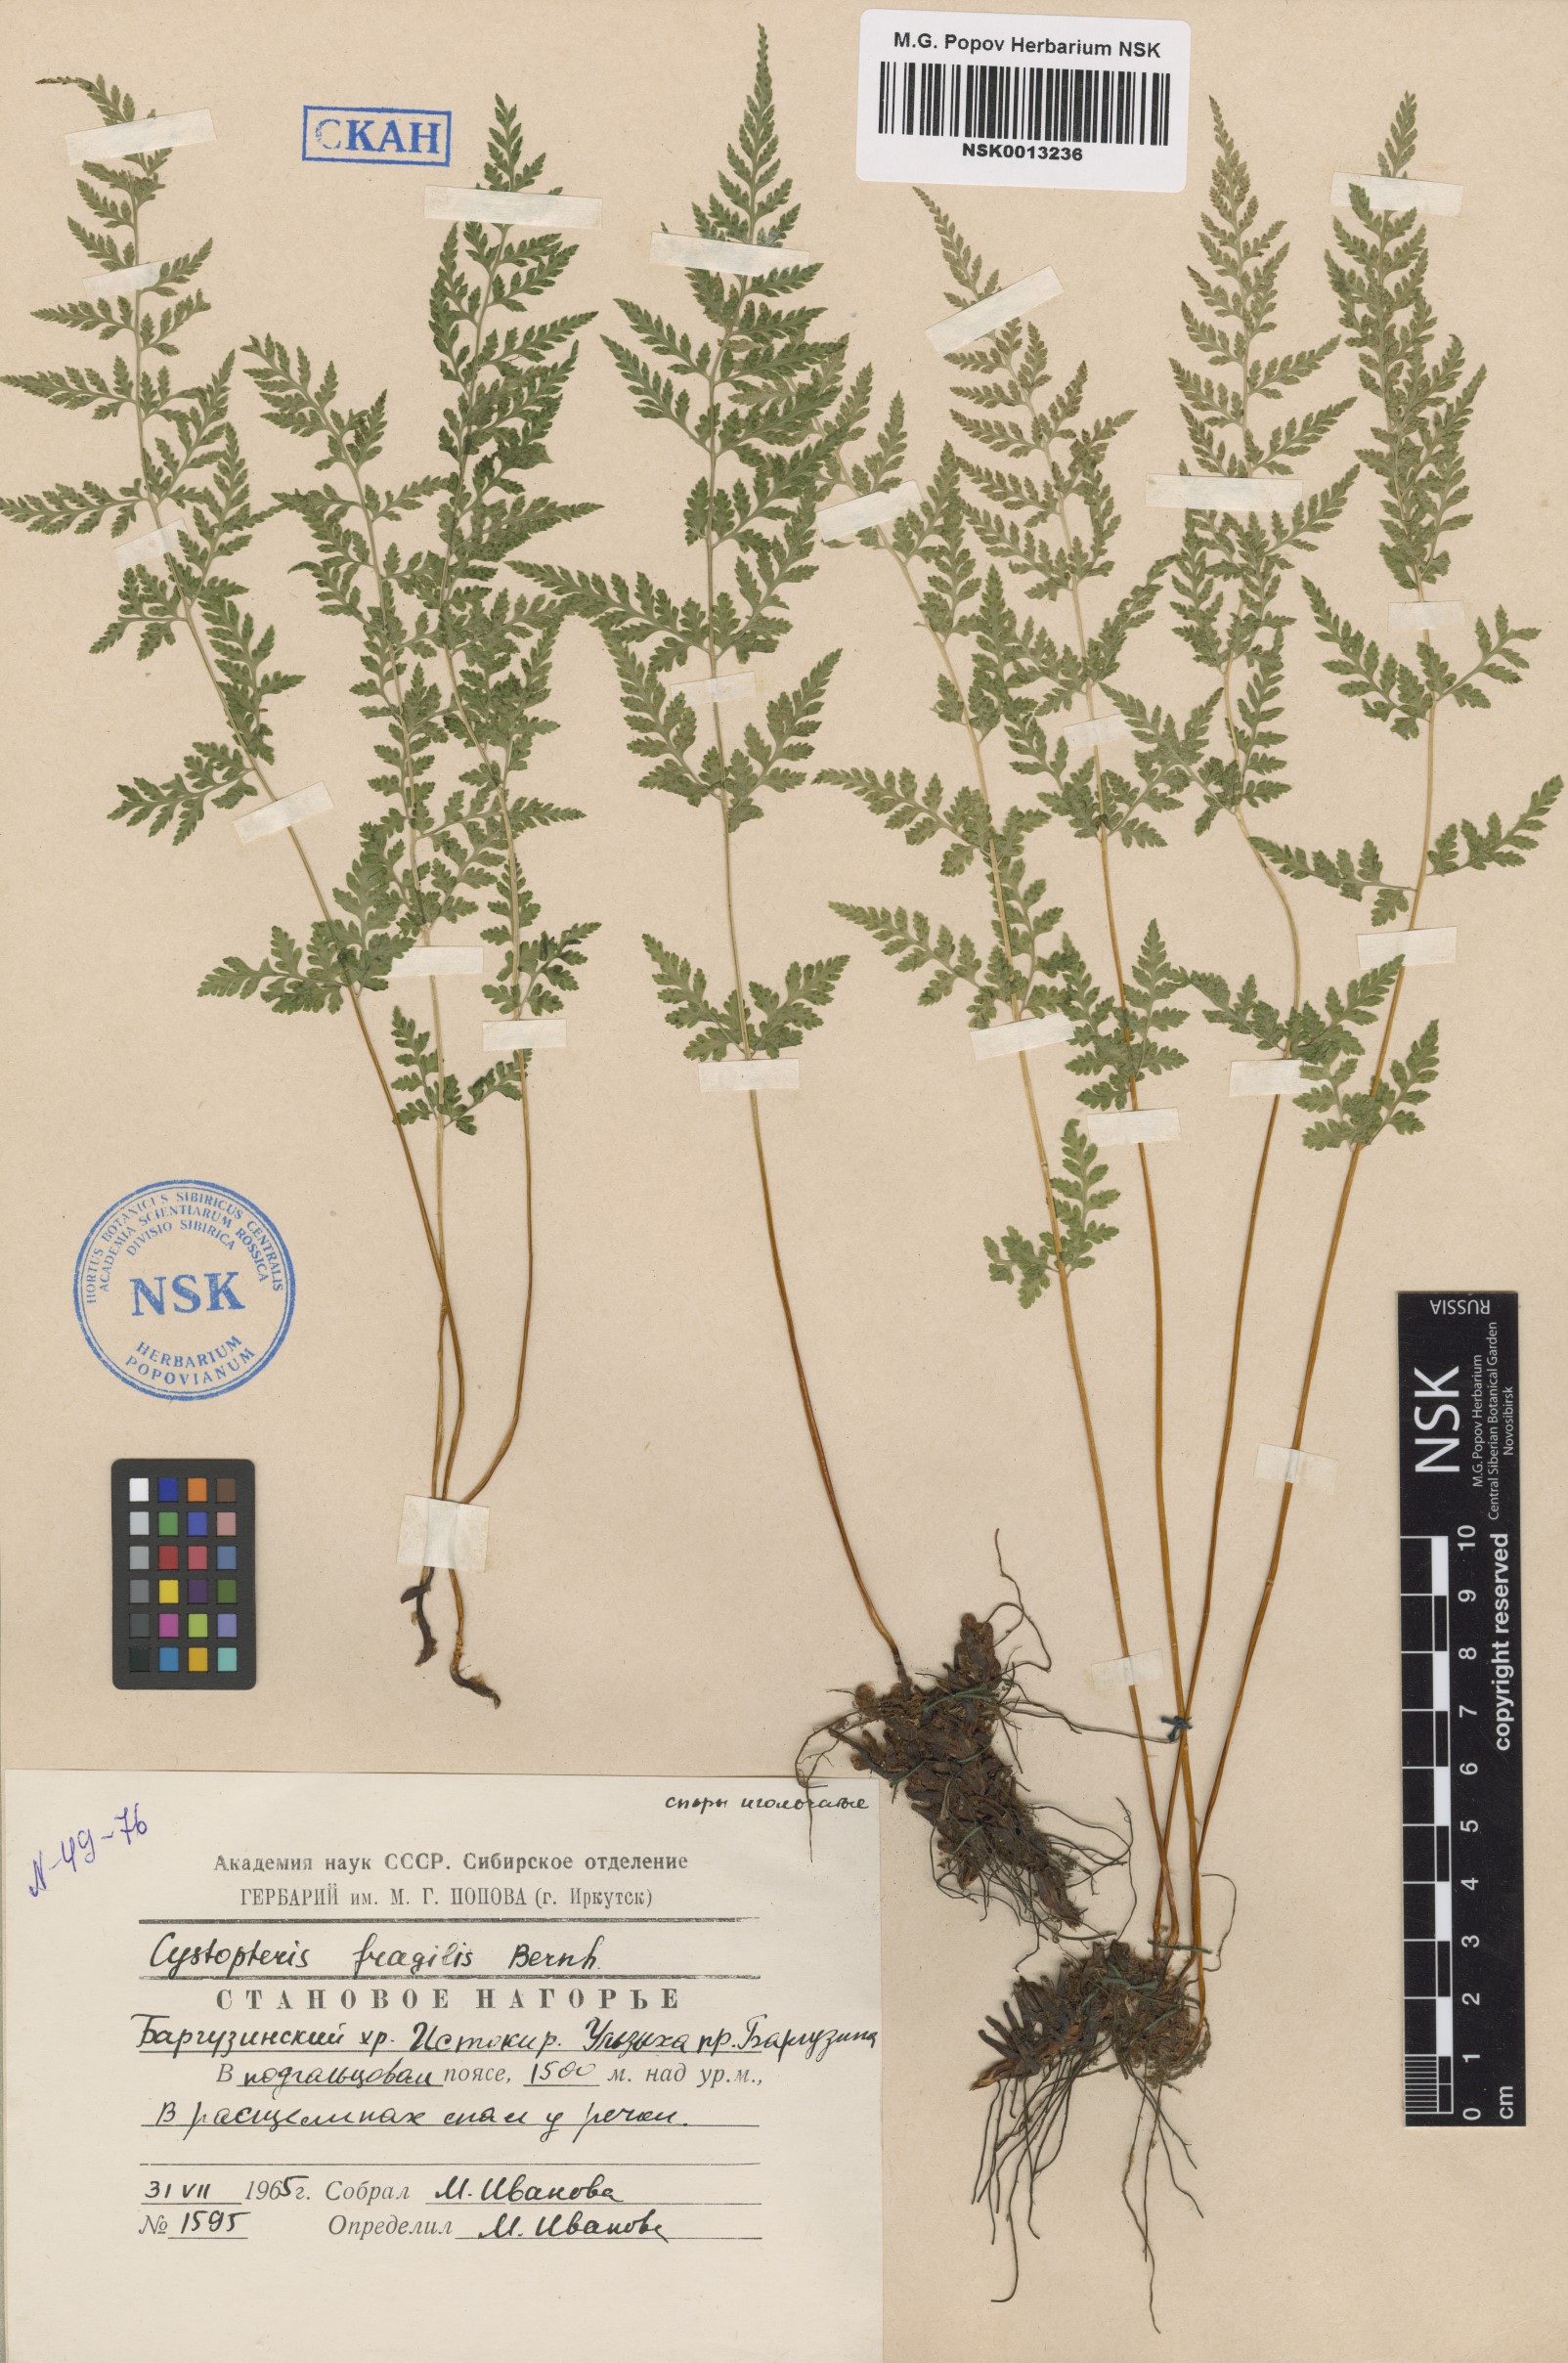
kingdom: Plantae
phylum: Tracheophyta
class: Polypodiopsida
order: Polypodiales
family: Cystopteridaceae
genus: Cystopteris
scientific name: Cystopteris fragilis
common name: Brittle bladder fern
